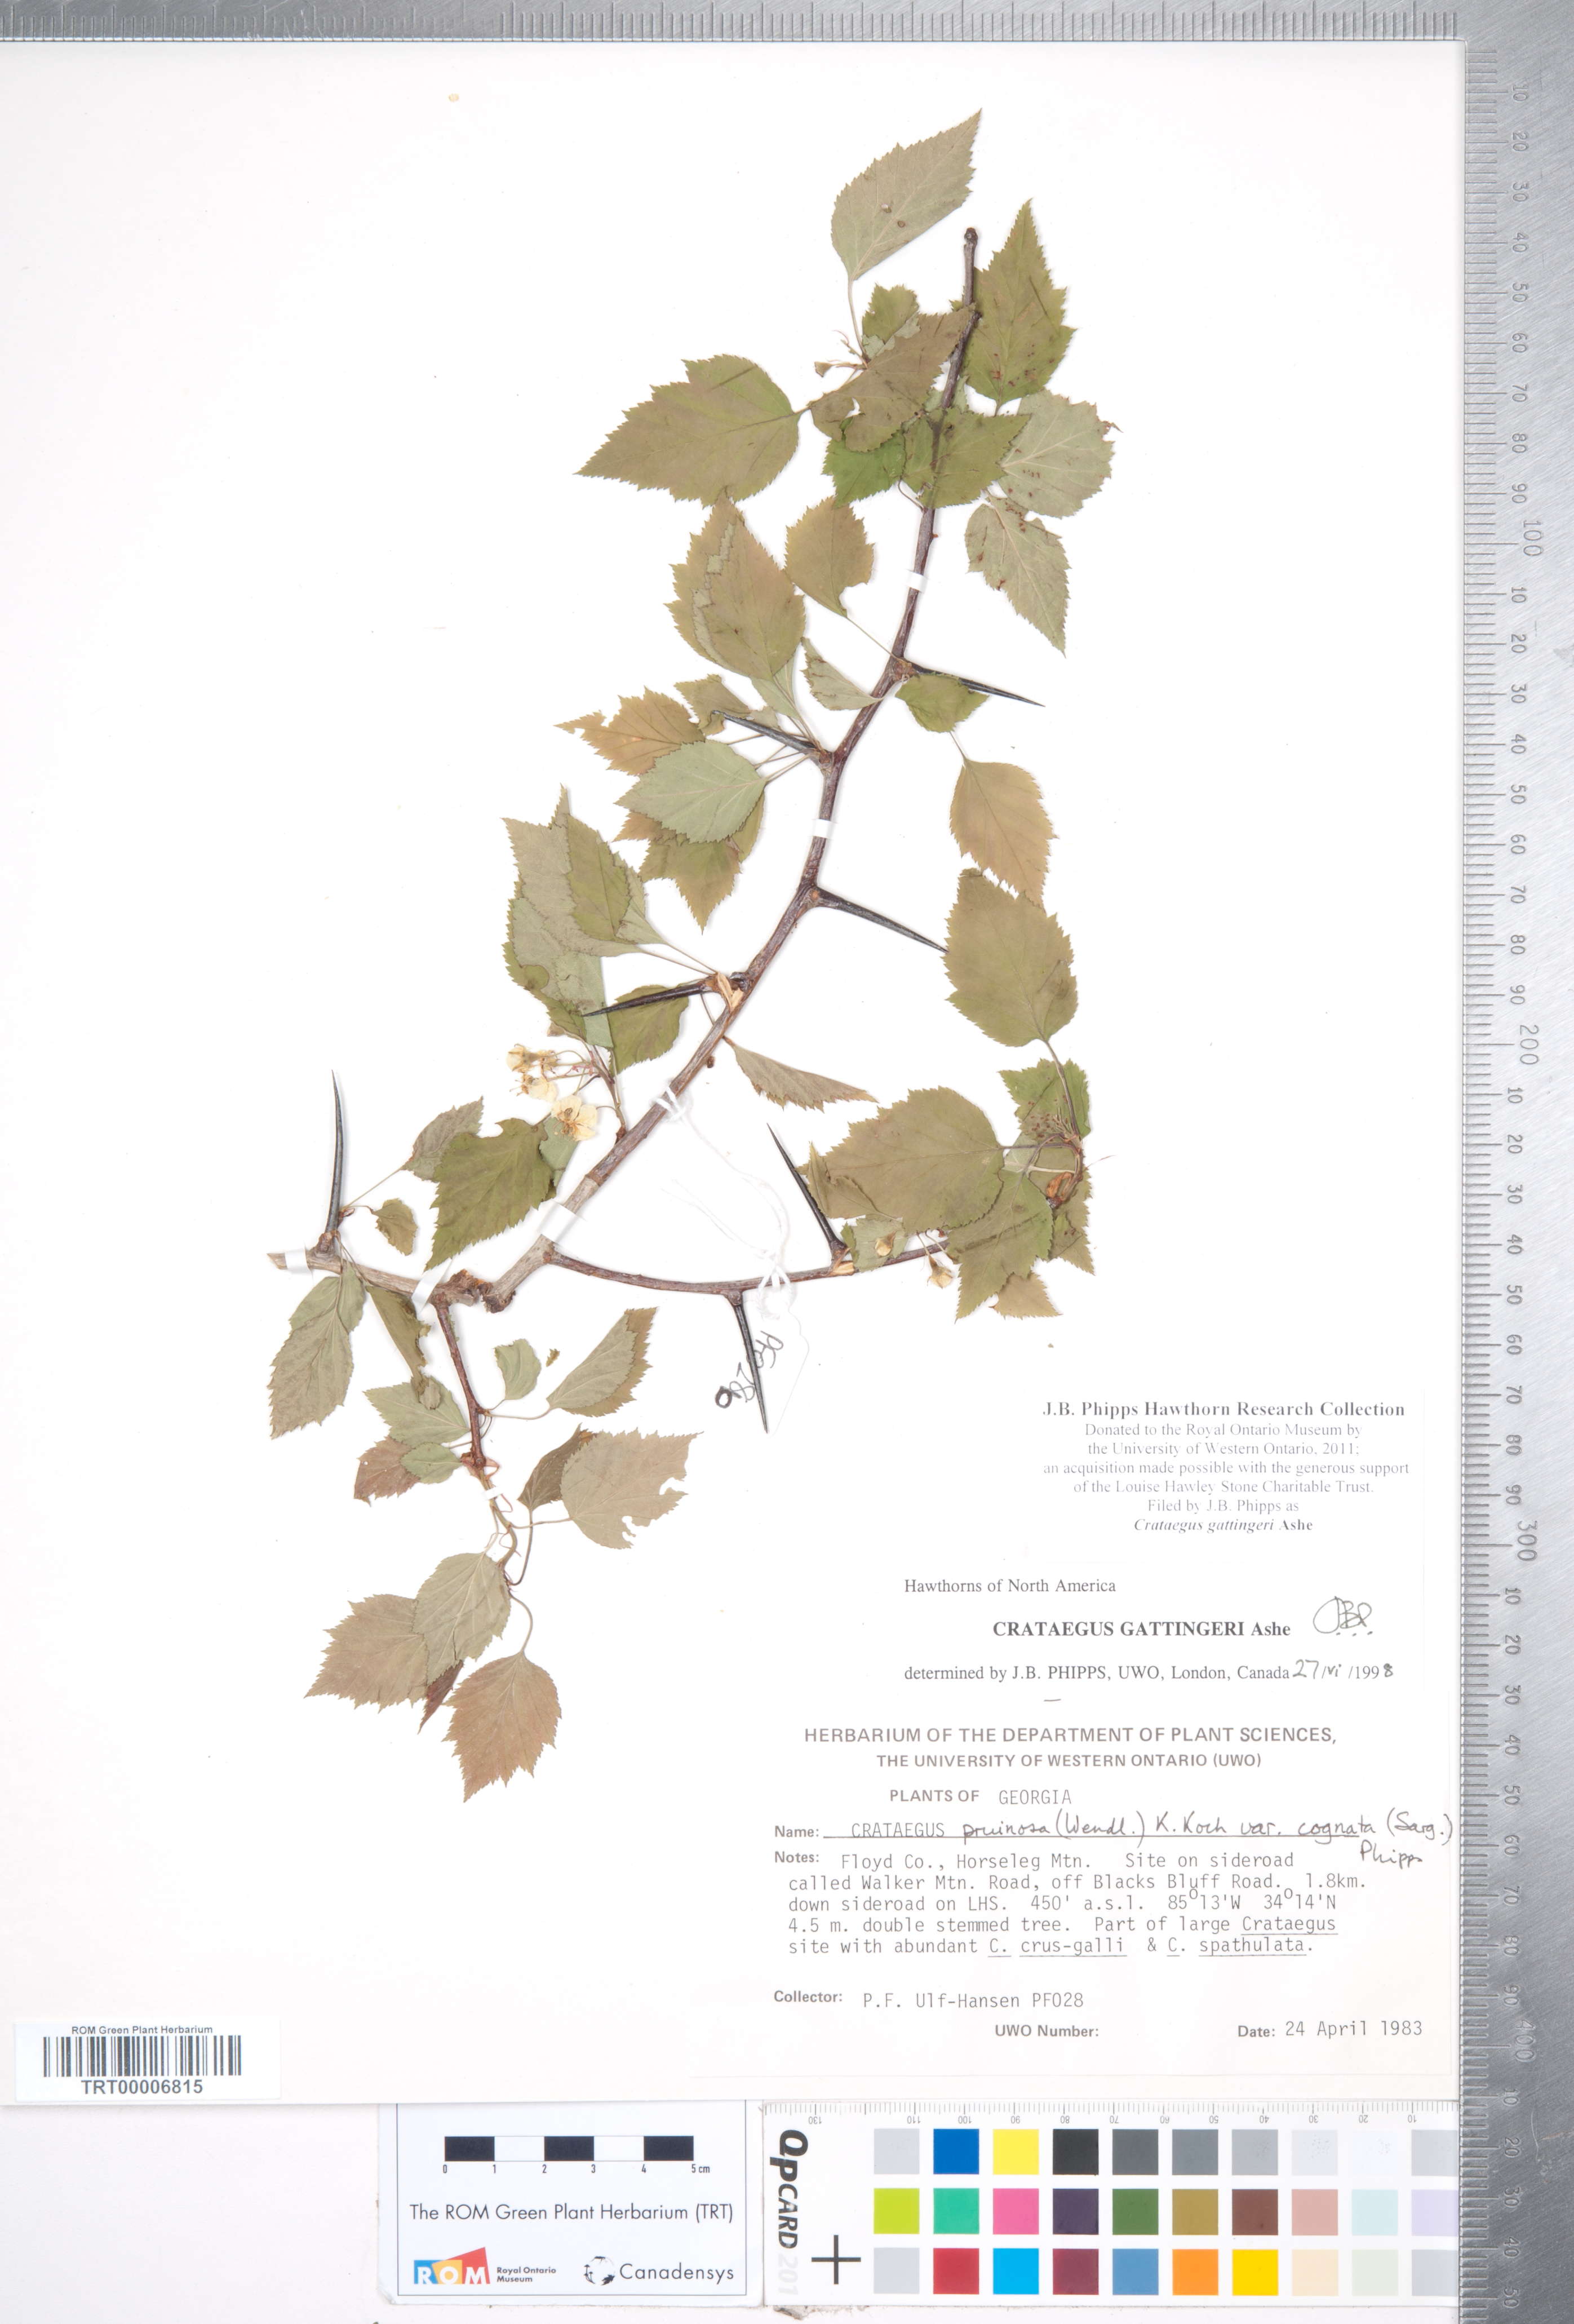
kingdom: Plantae
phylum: Tracheophyta
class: Magnoliopsida
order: Rosales
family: Rosaceae
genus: Crataegus
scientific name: Crataegus gattingeri
